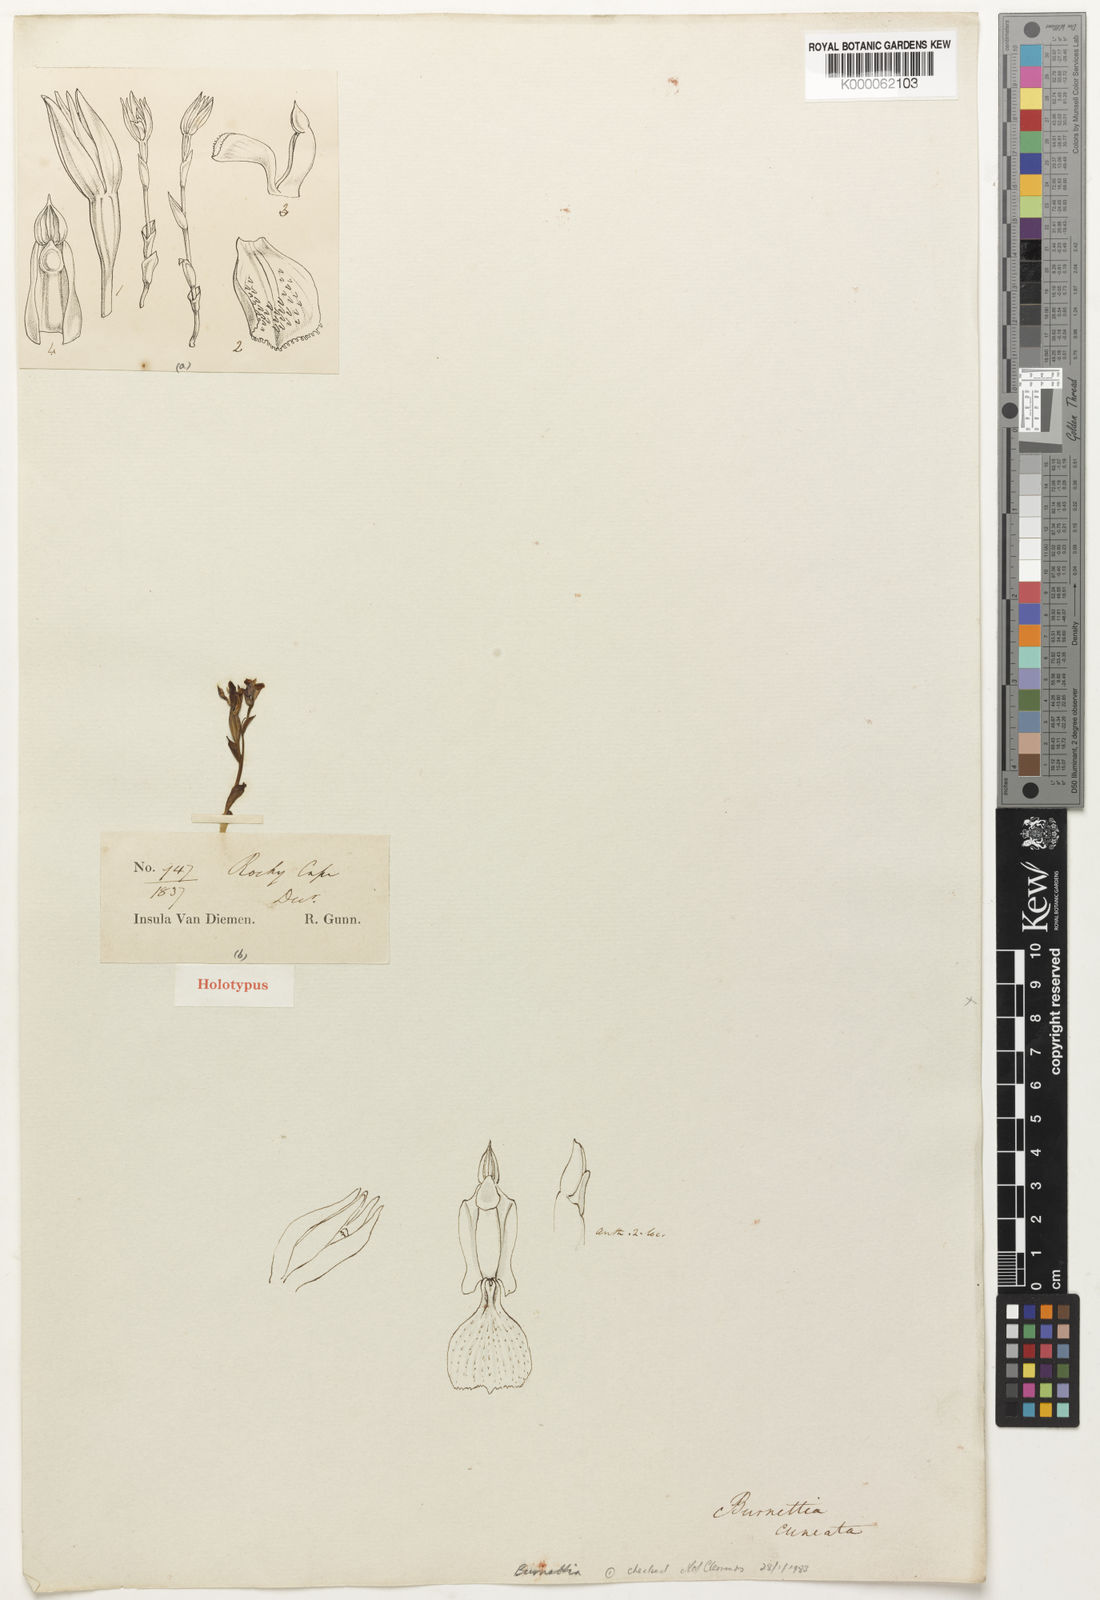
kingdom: Plantae
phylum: Tracheophyta
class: Liliopsida
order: Asparagales
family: Orchidaceae
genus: Burnettia
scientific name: Burnettia cuneata
